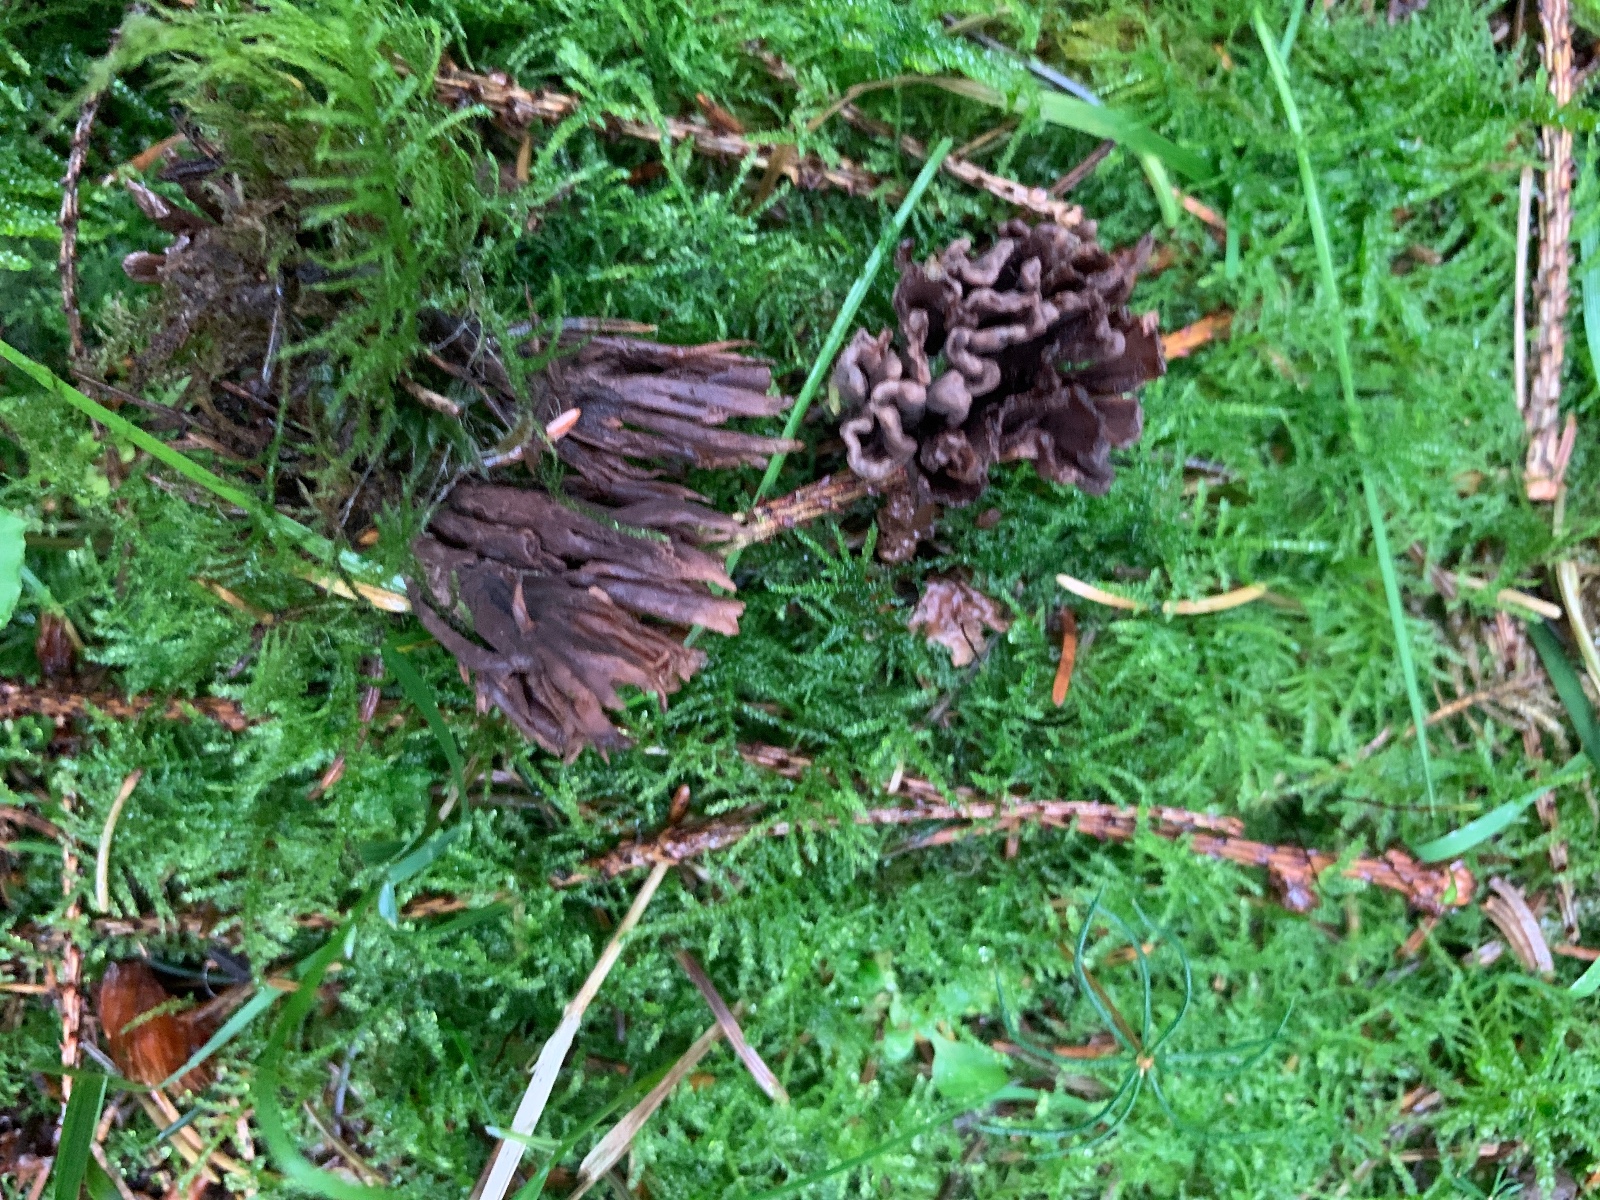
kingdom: Fungi
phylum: Basidiomycota
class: Agaricomycetes
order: Thelephorales
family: Thelephoraceae
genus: Thelephora
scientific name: Thelephora palmata
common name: grenet frynsesvamp
